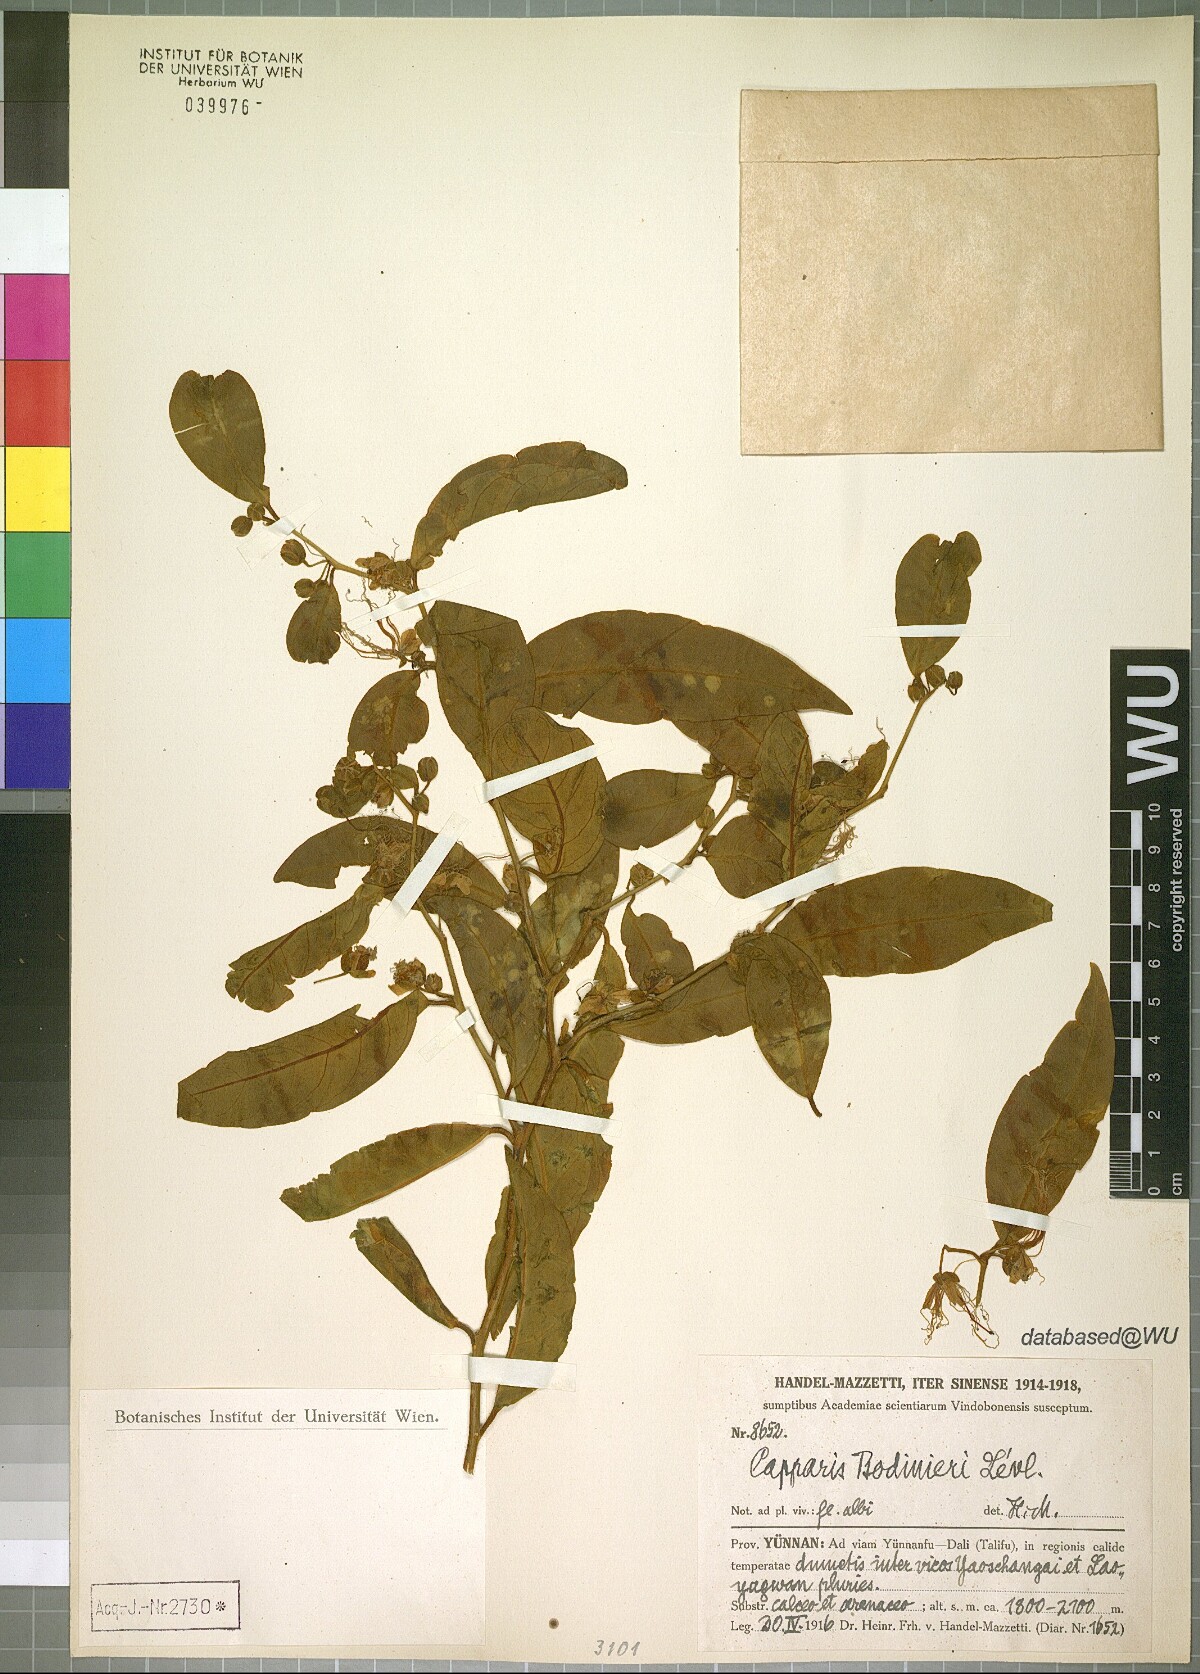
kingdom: Plantae
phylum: Tracheophyta
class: Magnoliopsida
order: Brassicales
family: Capparaceae
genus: Capparis
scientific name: Capparis bodinieri
